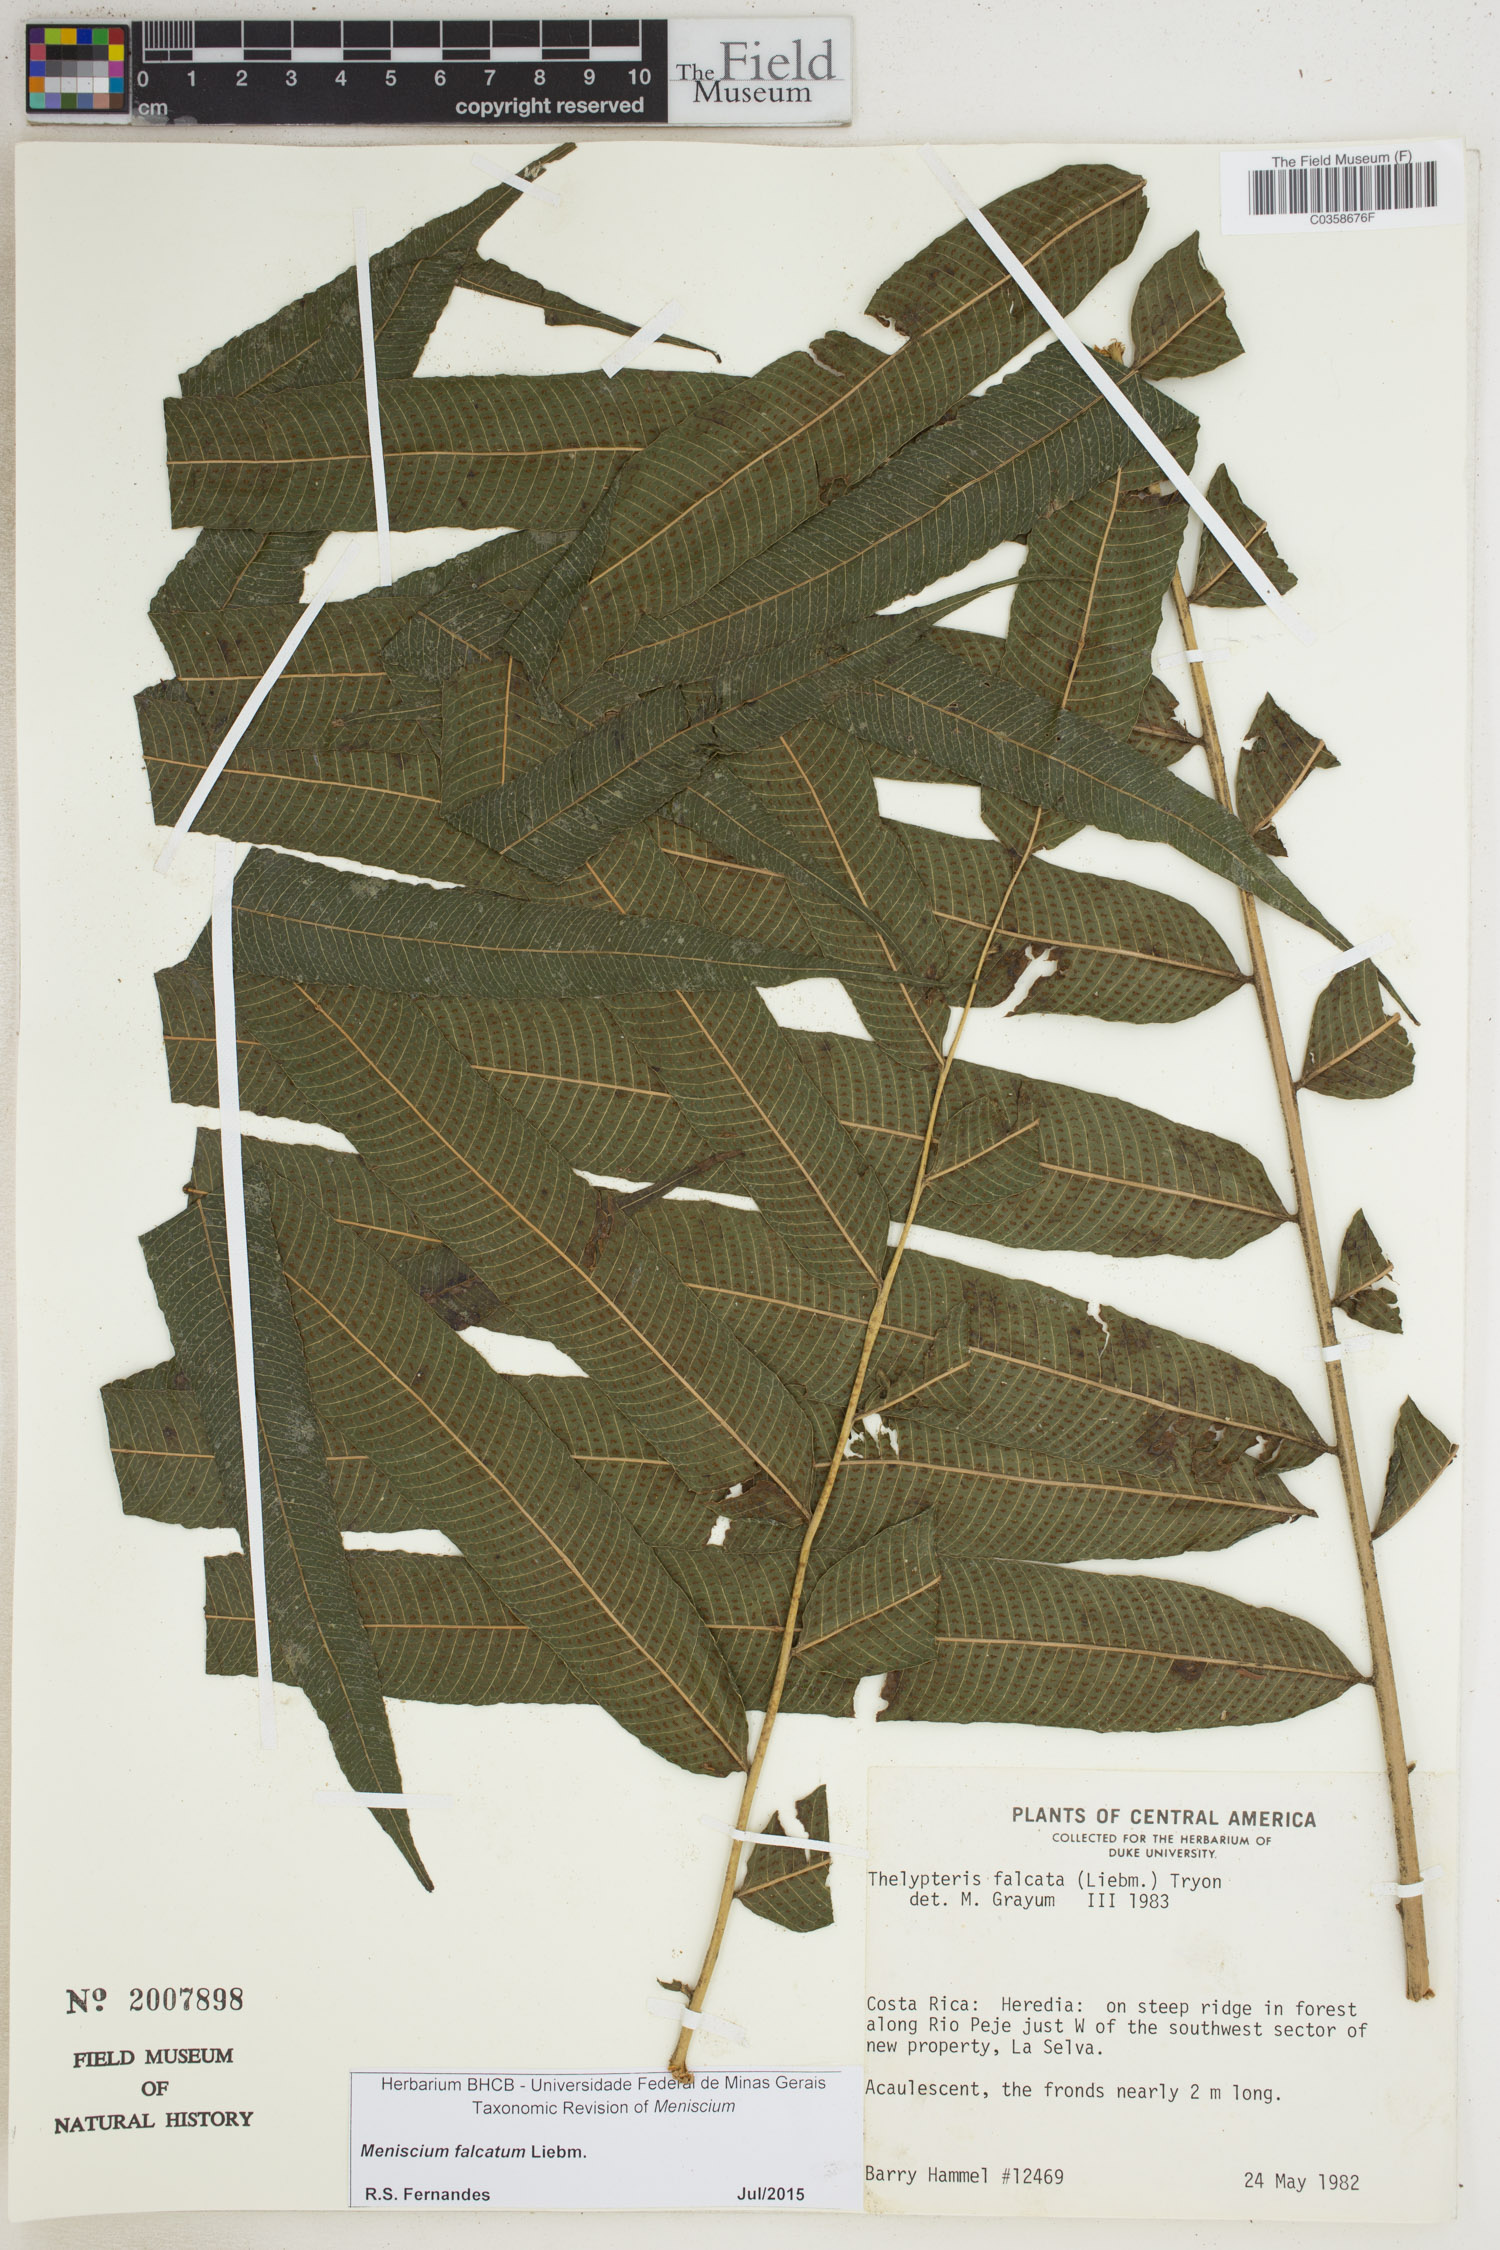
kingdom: Plantae
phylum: Tracheophyta
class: Polypodiopsida
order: Polypodiales
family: Thelypteridaceae
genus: Meniscium
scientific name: Meniscium falcatum
